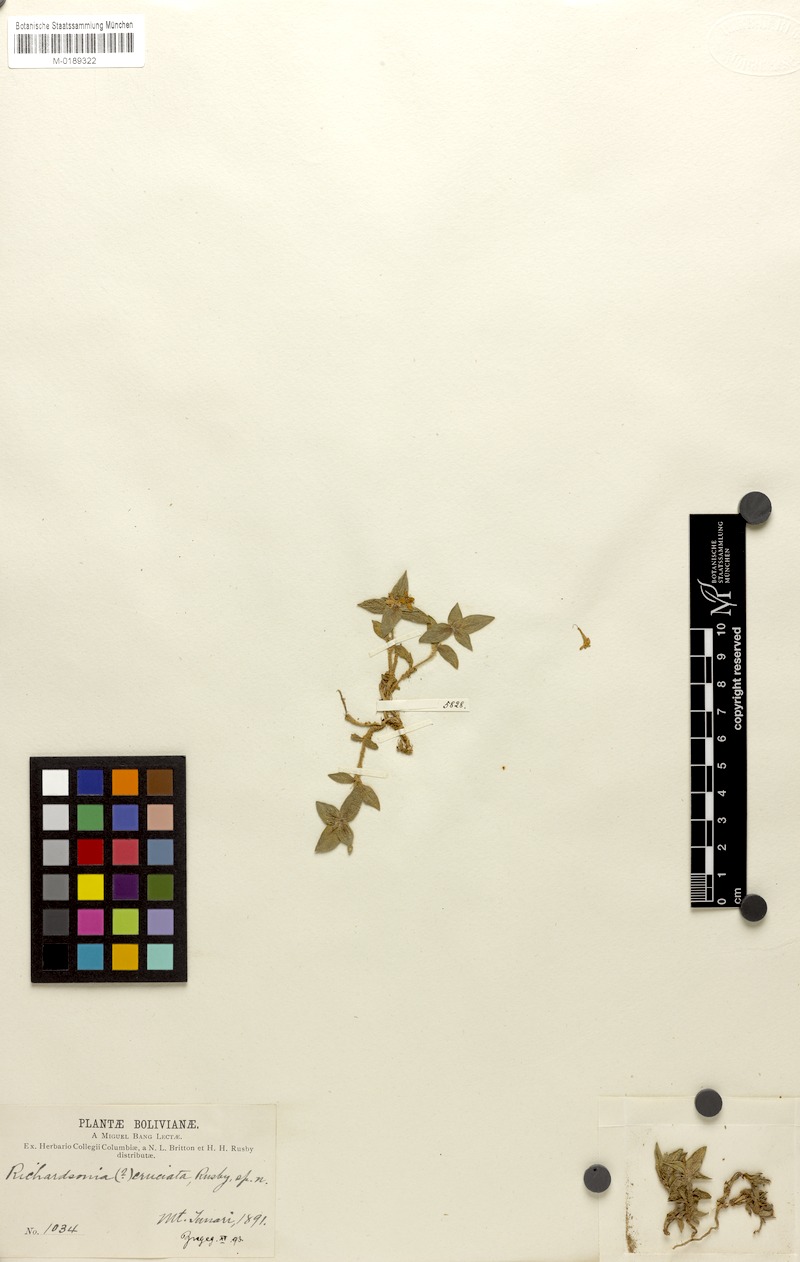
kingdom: Plantae
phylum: Tracheophyta
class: Magnoliopsida
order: Gentianales
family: Rubiaceae
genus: Richardia
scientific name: Richardia cruciata
